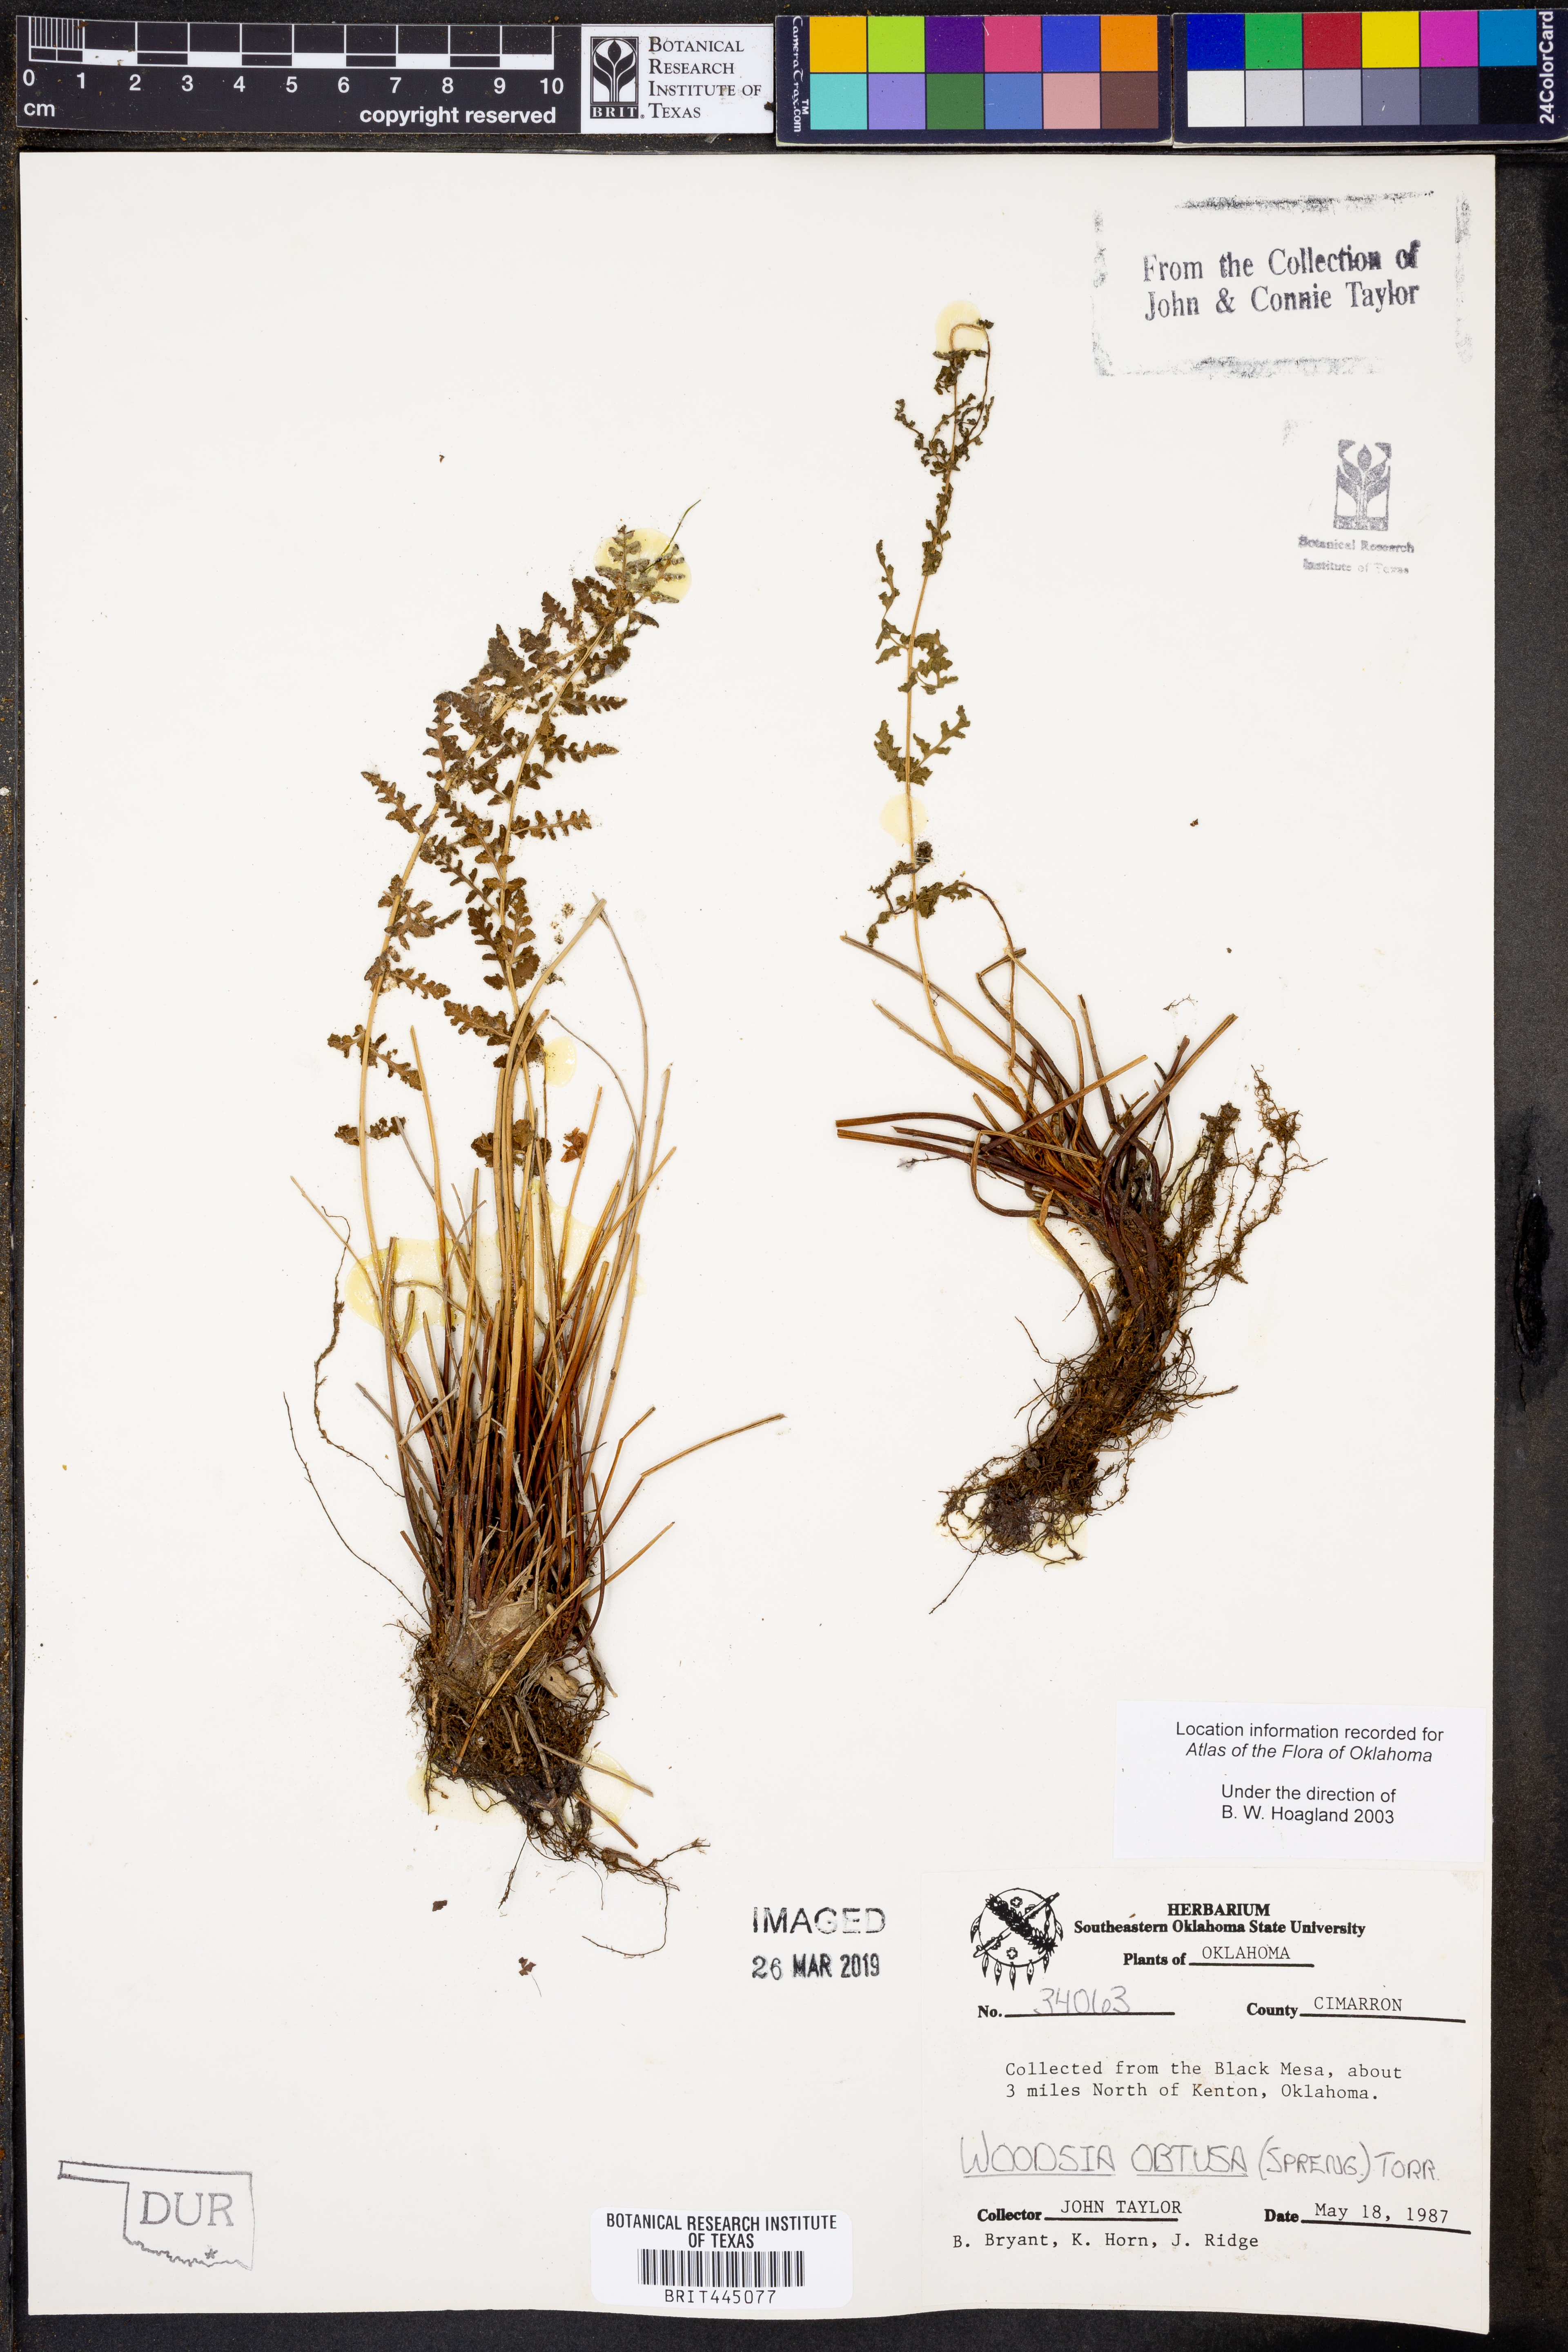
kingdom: Plantae
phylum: Tracheophyta
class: Polypodiopsida
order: Polypodiales
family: Woodsiaceae
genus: Physematium
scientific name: Physematium obtusum
